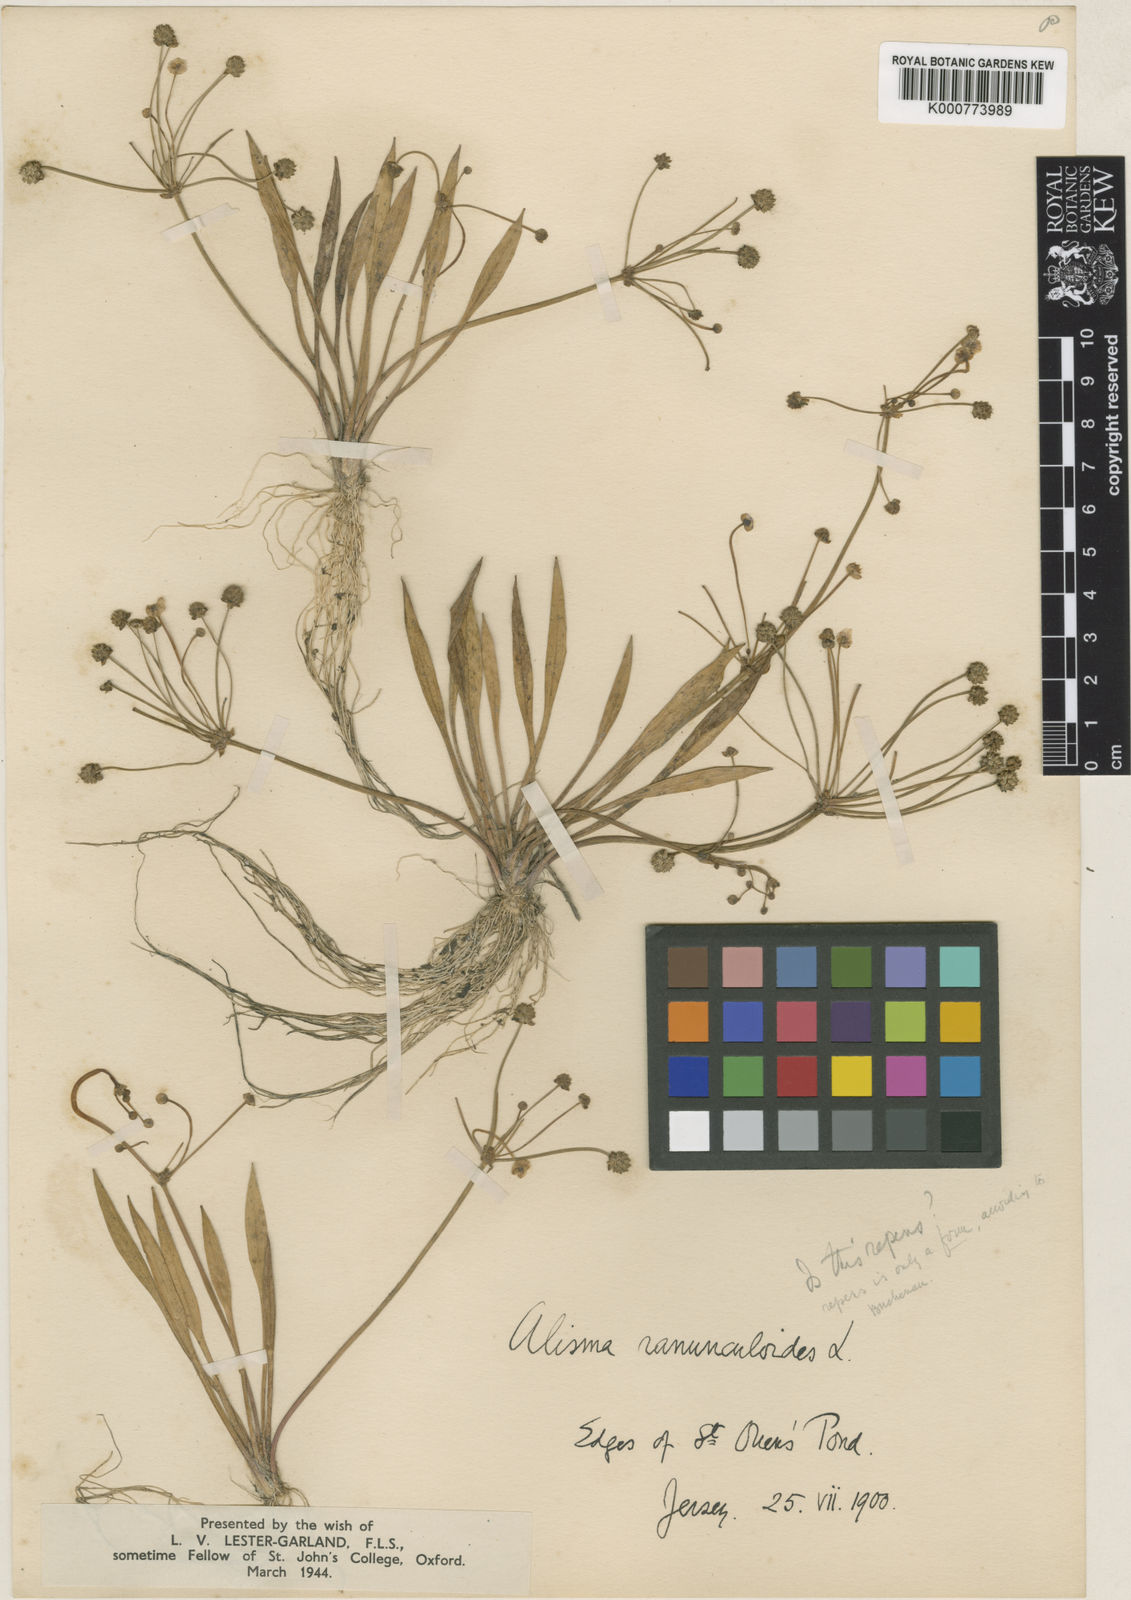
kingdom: Plantae
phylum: Tracheophyta
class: Liliopsida
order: Alismatales
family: Alismataceae
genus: Baldellia
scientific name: Baldellia ranunculoides
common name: Lesser water-plantain
